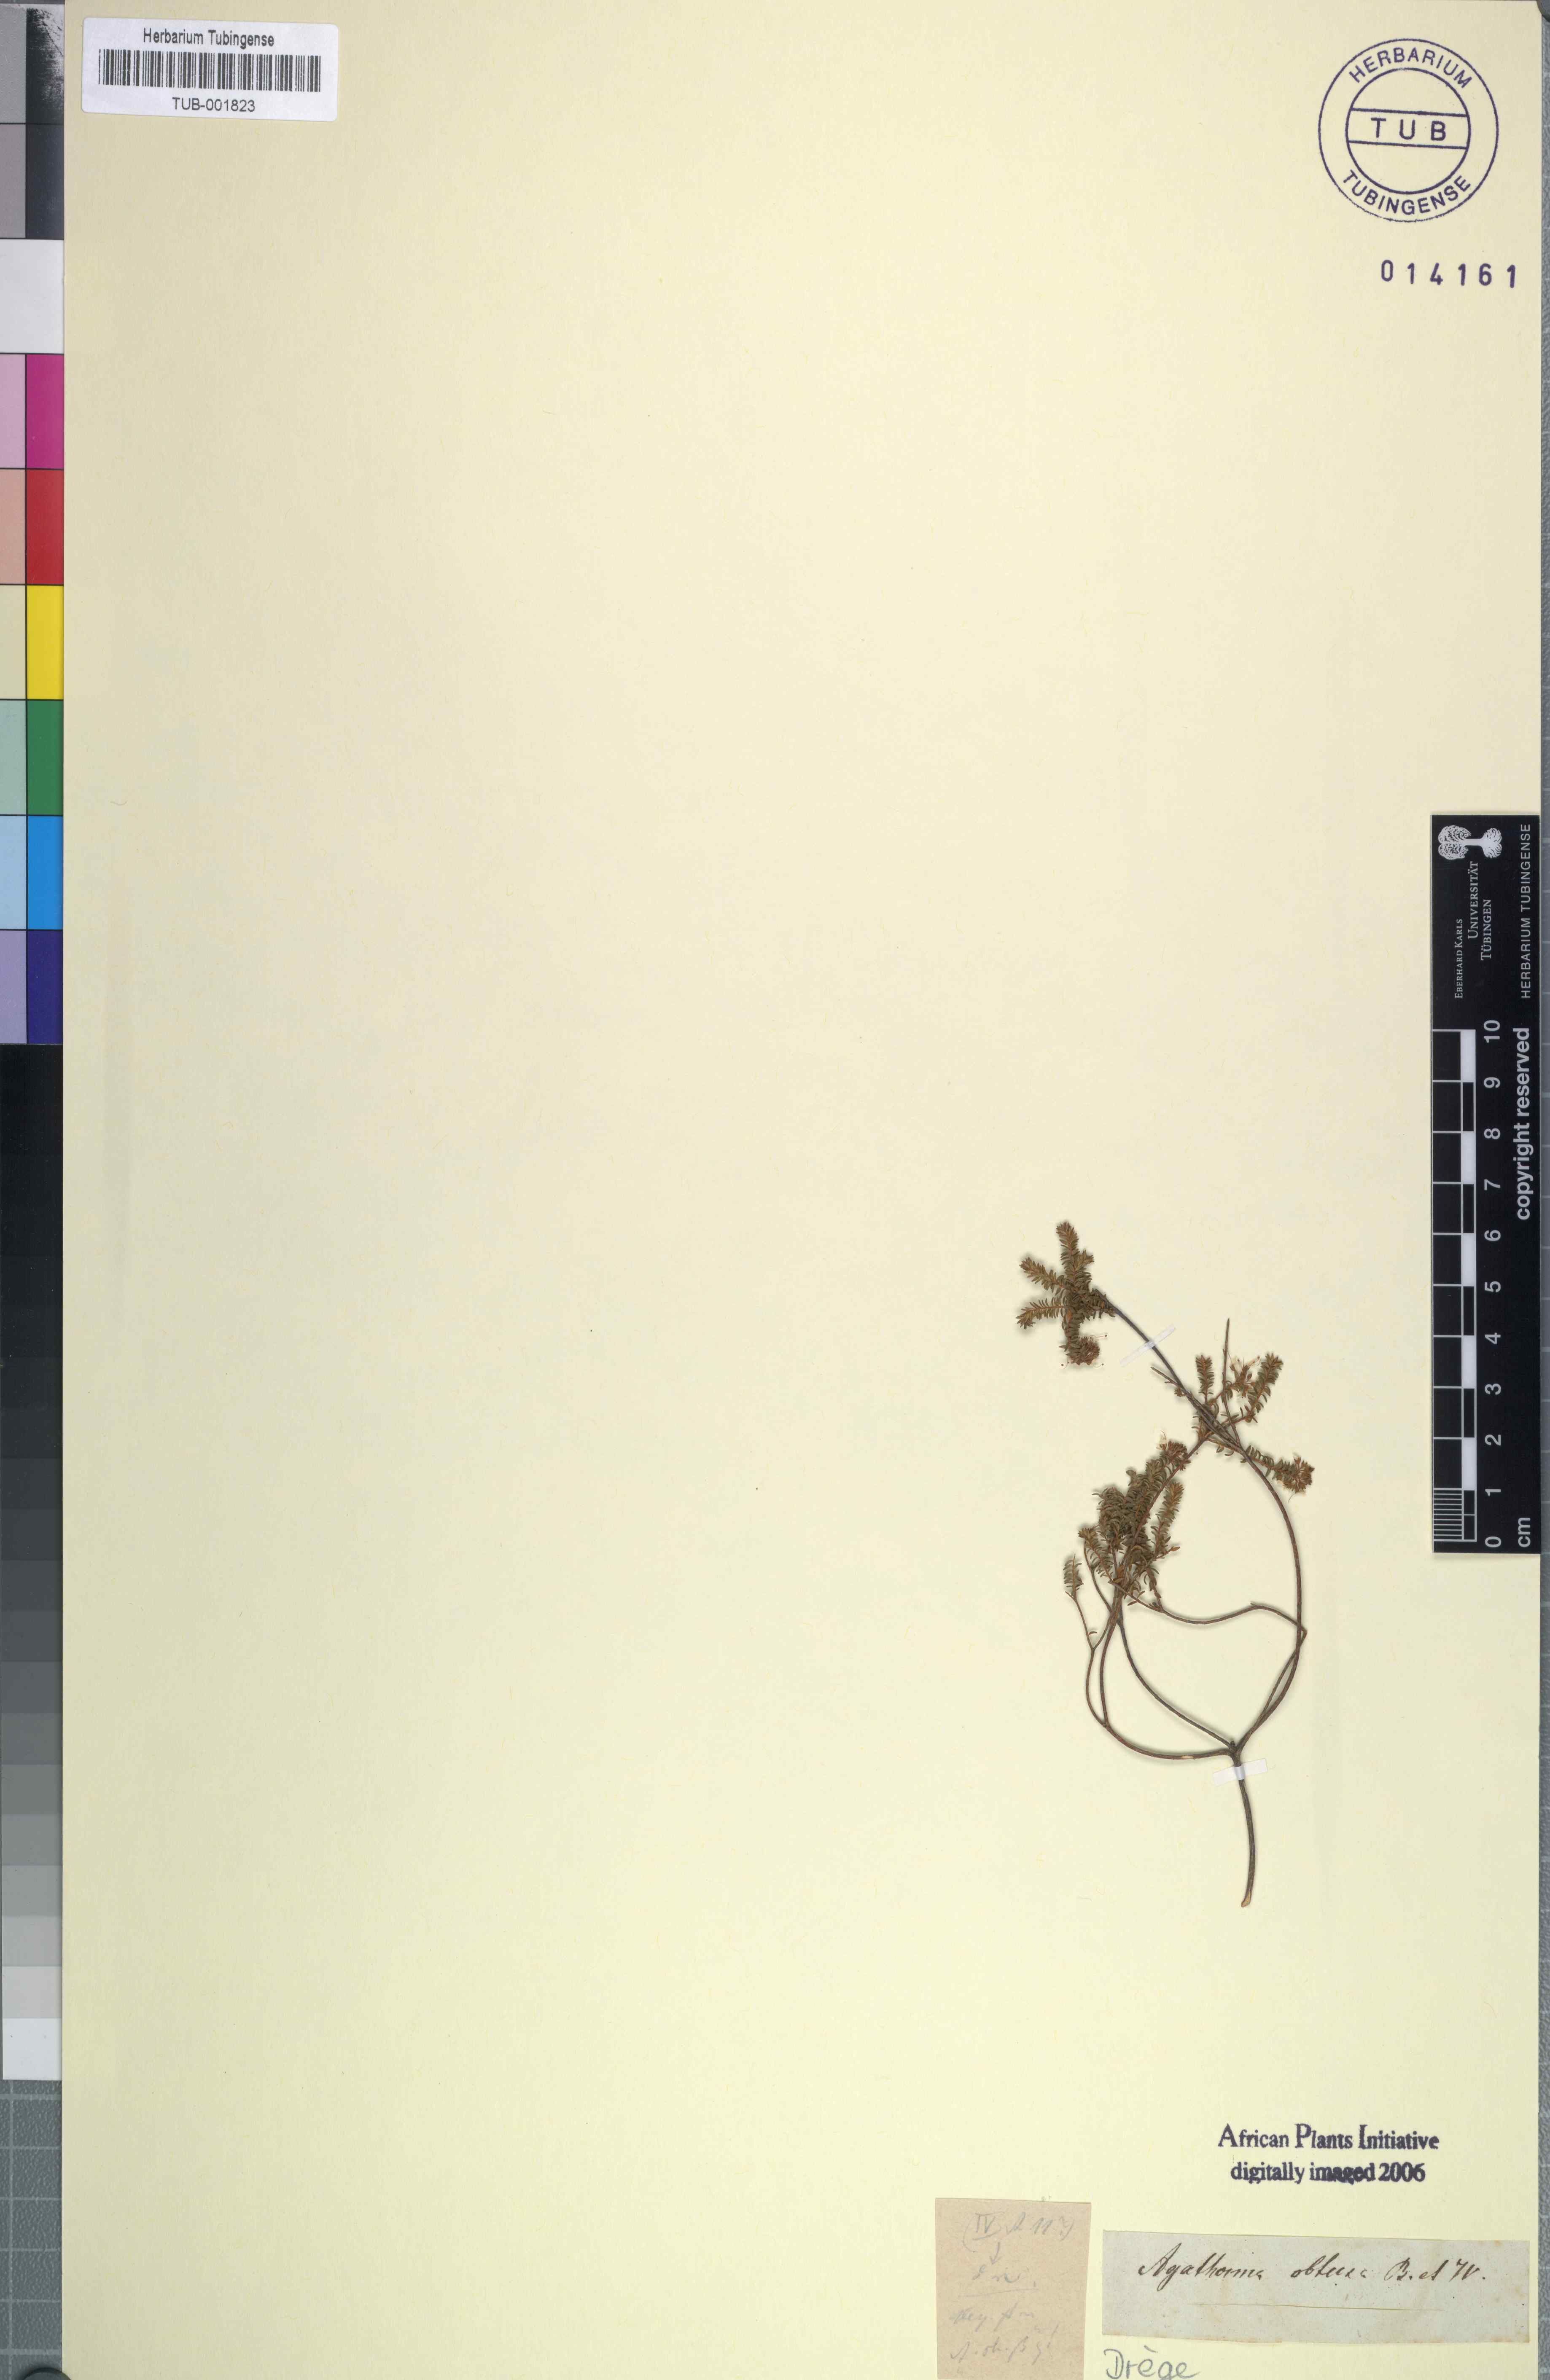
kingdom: Plantae
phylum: Tracheophyta
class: Magnoliopsida
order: Sapindales
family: Rutaceae
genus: Agathosma
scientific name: Agathosma ciliaris
